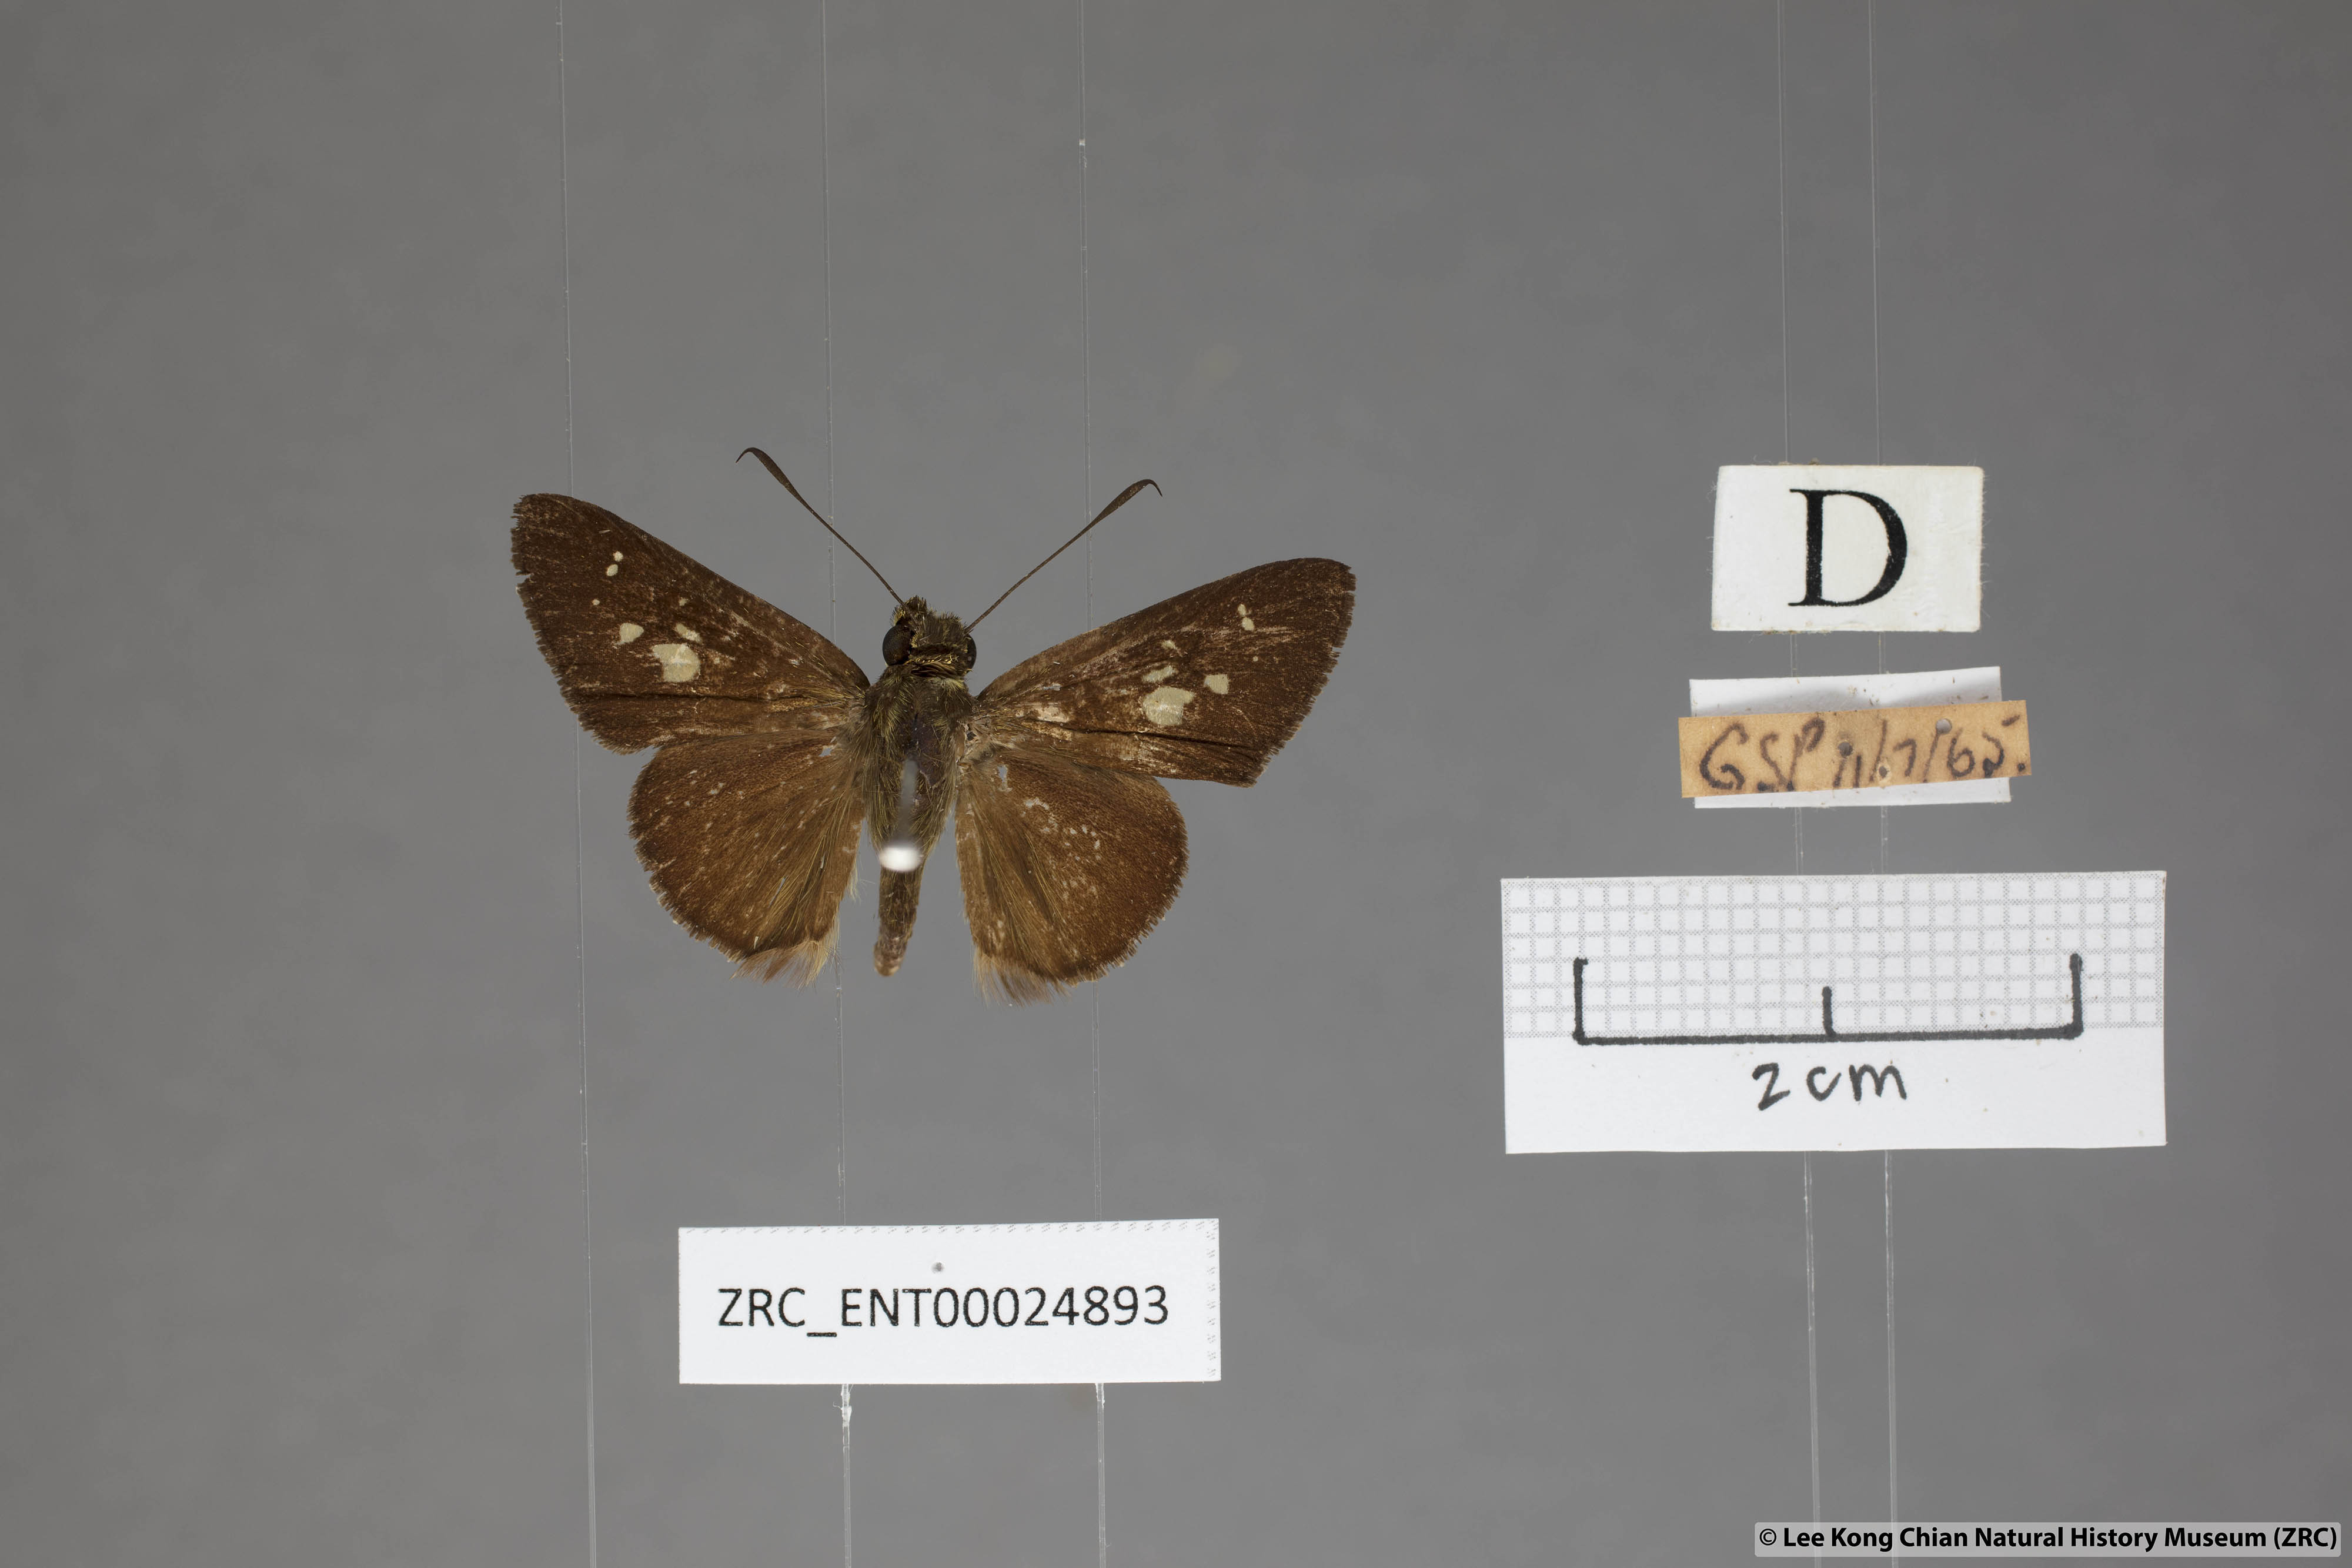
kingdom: Animalia
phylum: Arthropoda
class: Insecta
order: Lepidoptera
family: Hesperiidae
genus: Isma
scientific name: Isma
